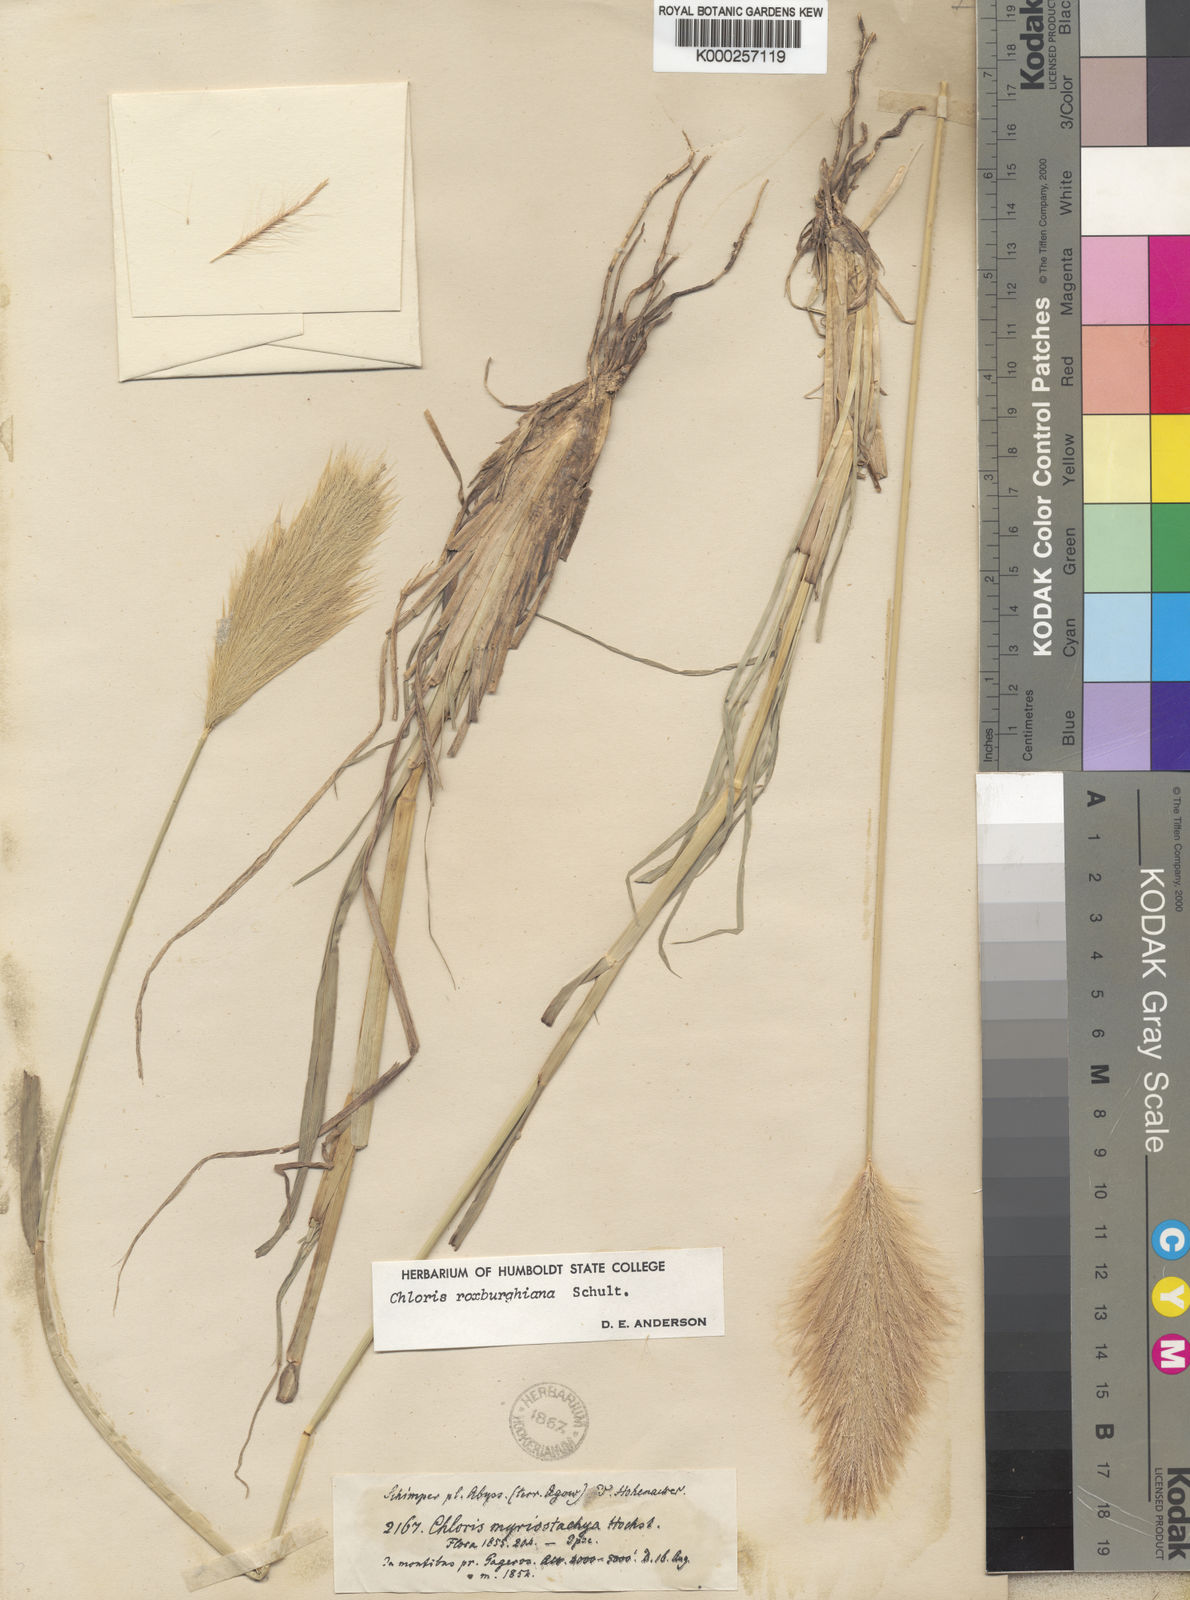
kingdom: Plantae
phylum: Tracheophyta
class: Liliopsida
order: Poales
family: Poaceae
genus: Tetrapogon
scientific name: Tetrapogon roxburghiana
